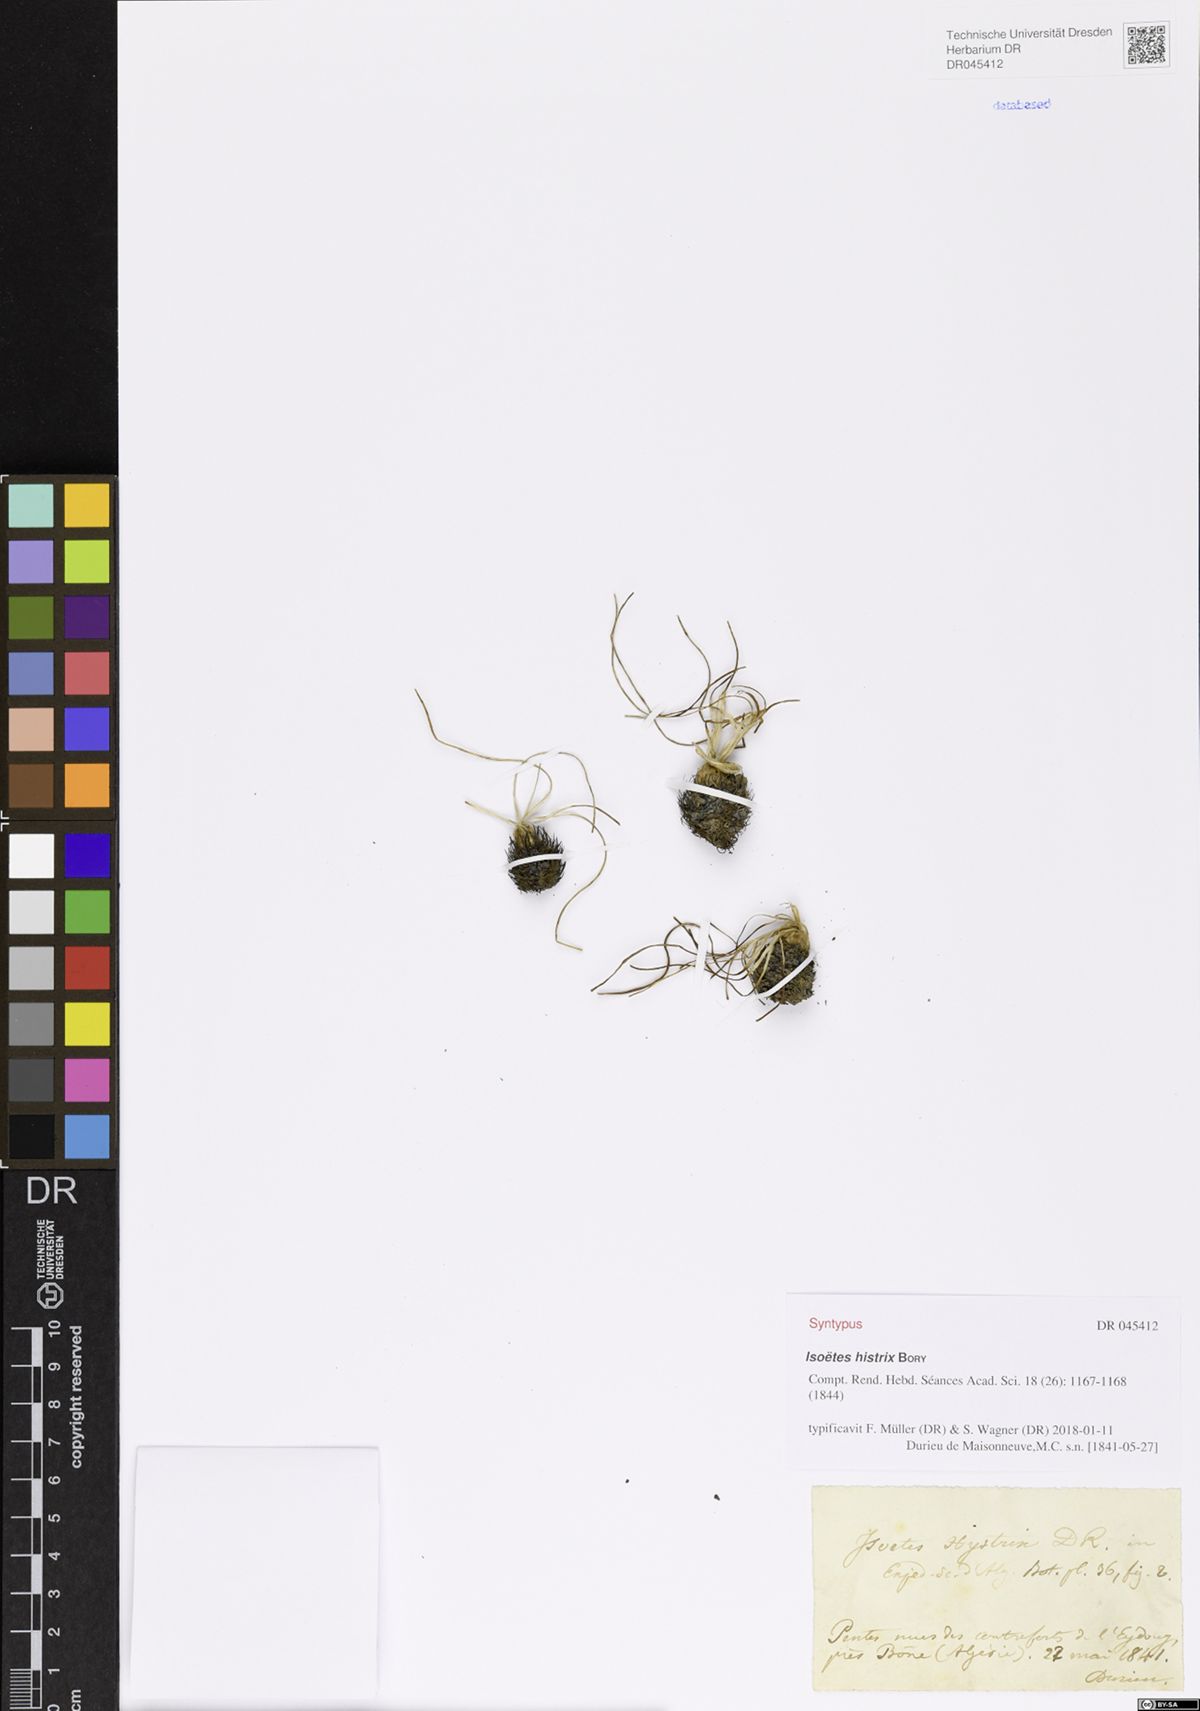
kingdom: Plantae
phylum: Tracheophyta
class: Lycopodiopsida
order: Isoetales
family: Isoetaceae
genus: Isoetes
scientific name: Isoetes histrix
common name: Land quillwort
